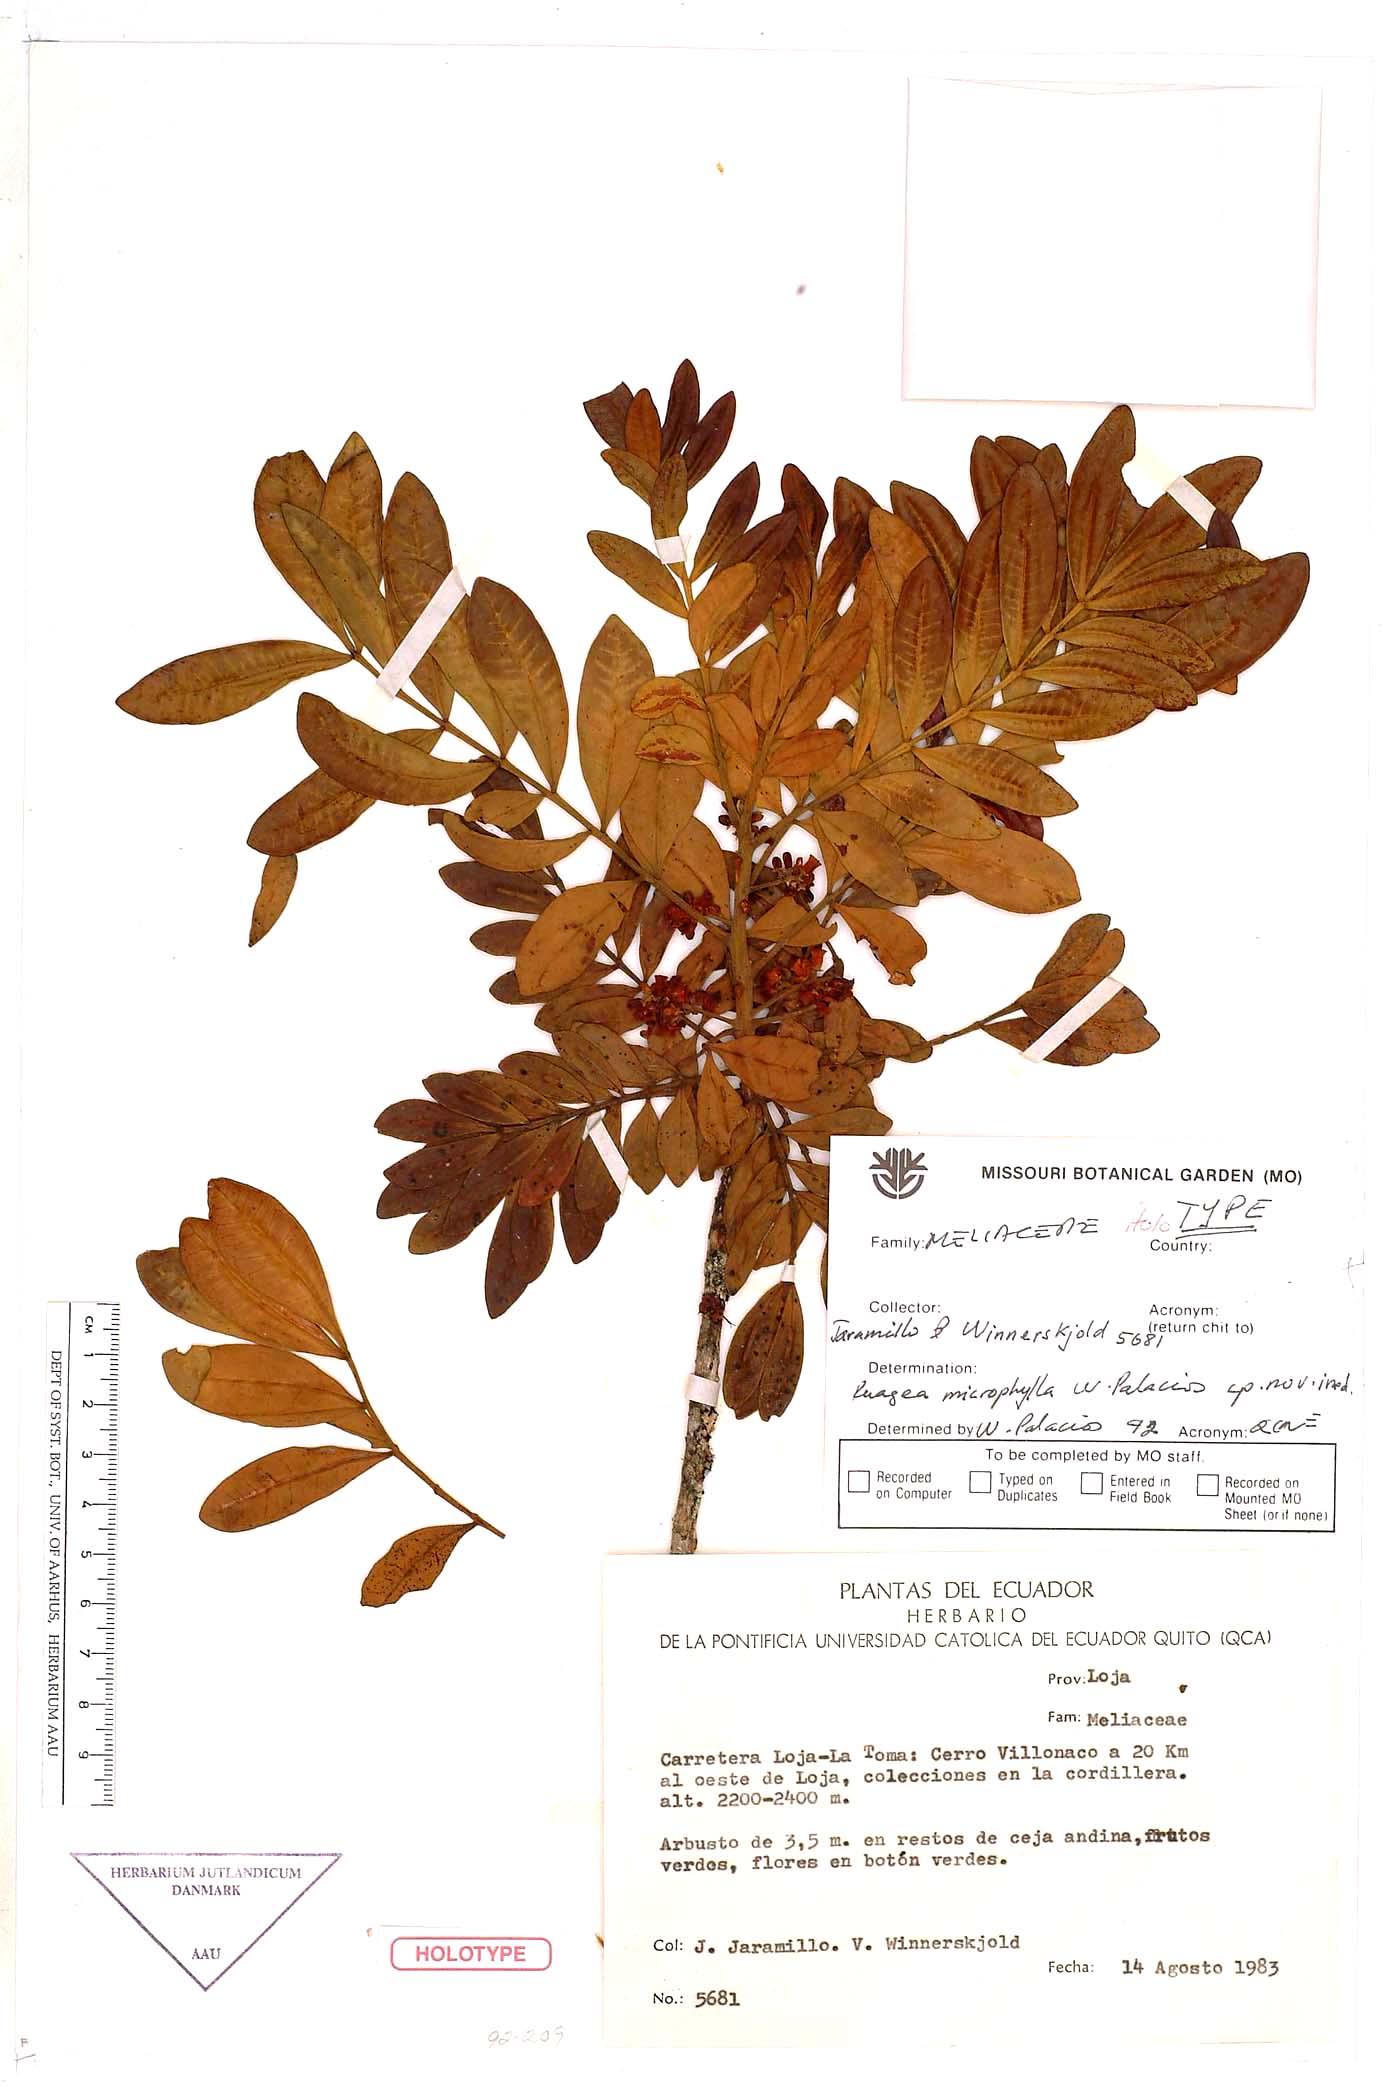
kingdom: Plantae
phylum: Tracheophyta
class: Magnoliopsida
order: Sapindales
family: Meliaceae
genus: Ruagea
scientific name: Ruagea microphylla
